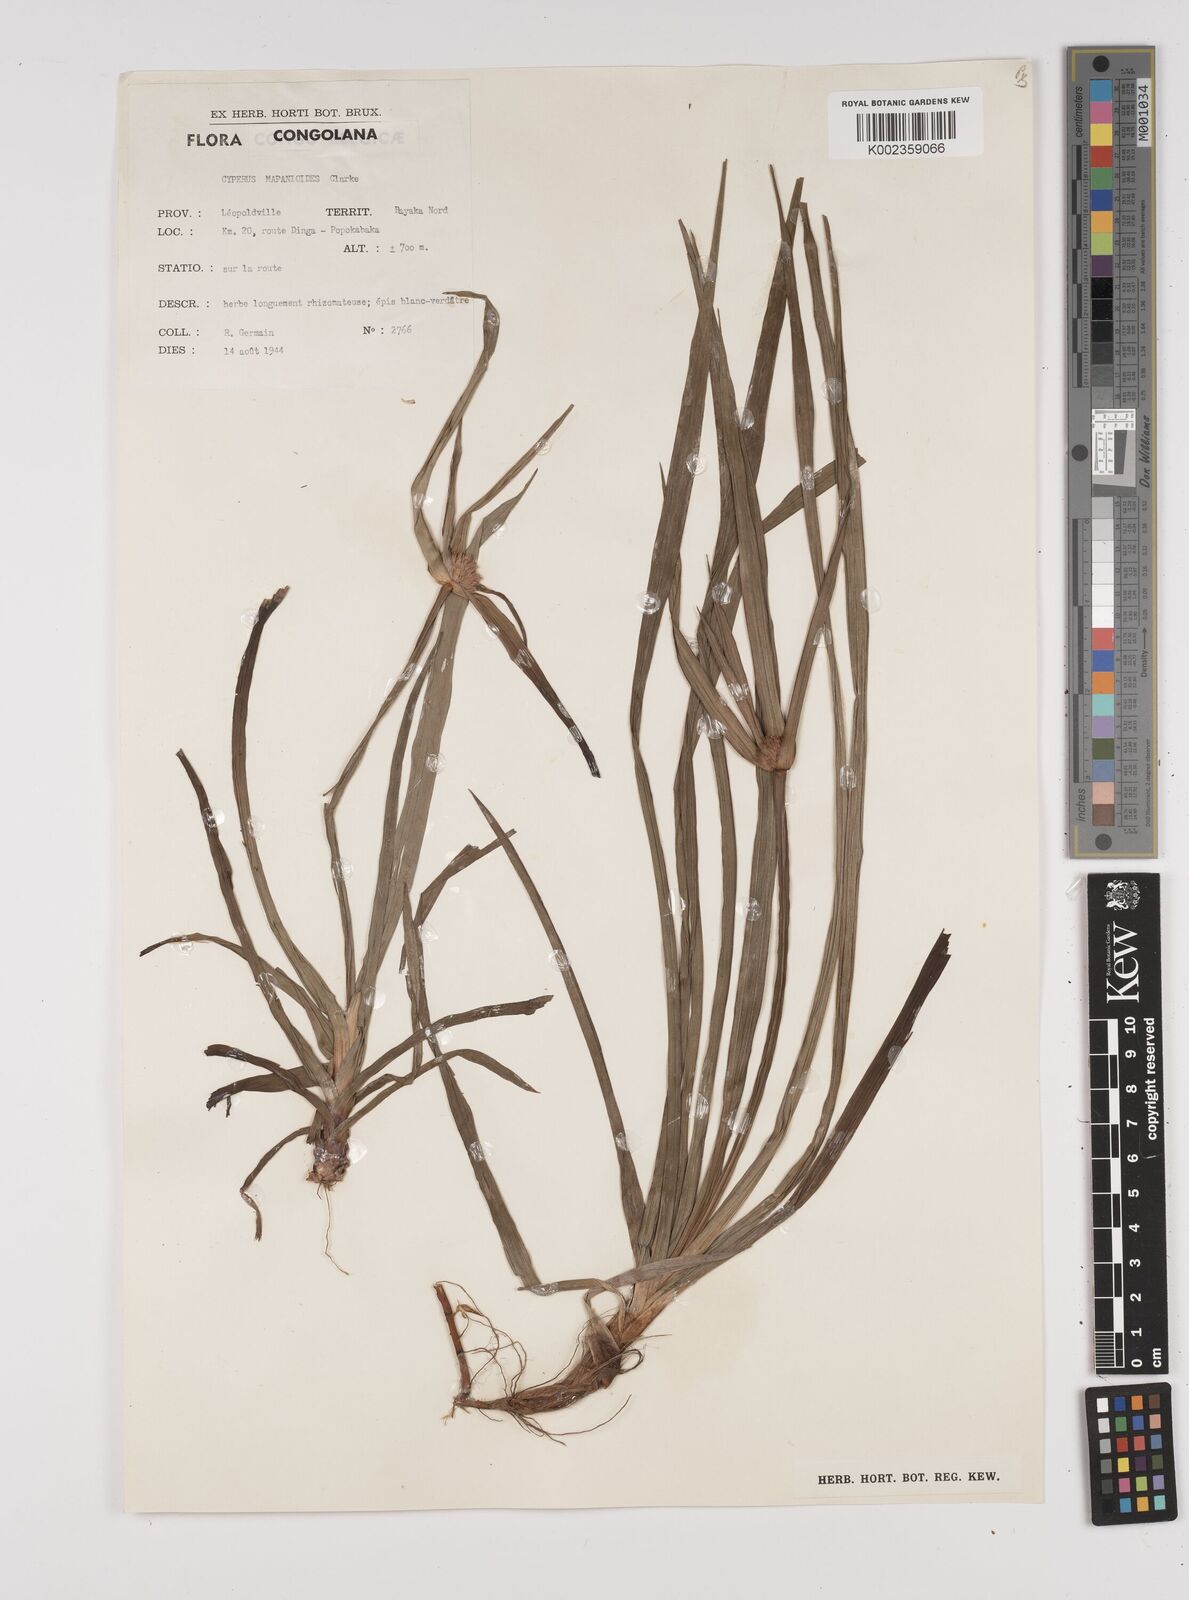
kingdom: Plantae
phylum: Tracheophyta
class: Liliopsida
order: Poales
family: Cyperaceae
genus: Cyperus
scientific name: Cyperus mapanioides
